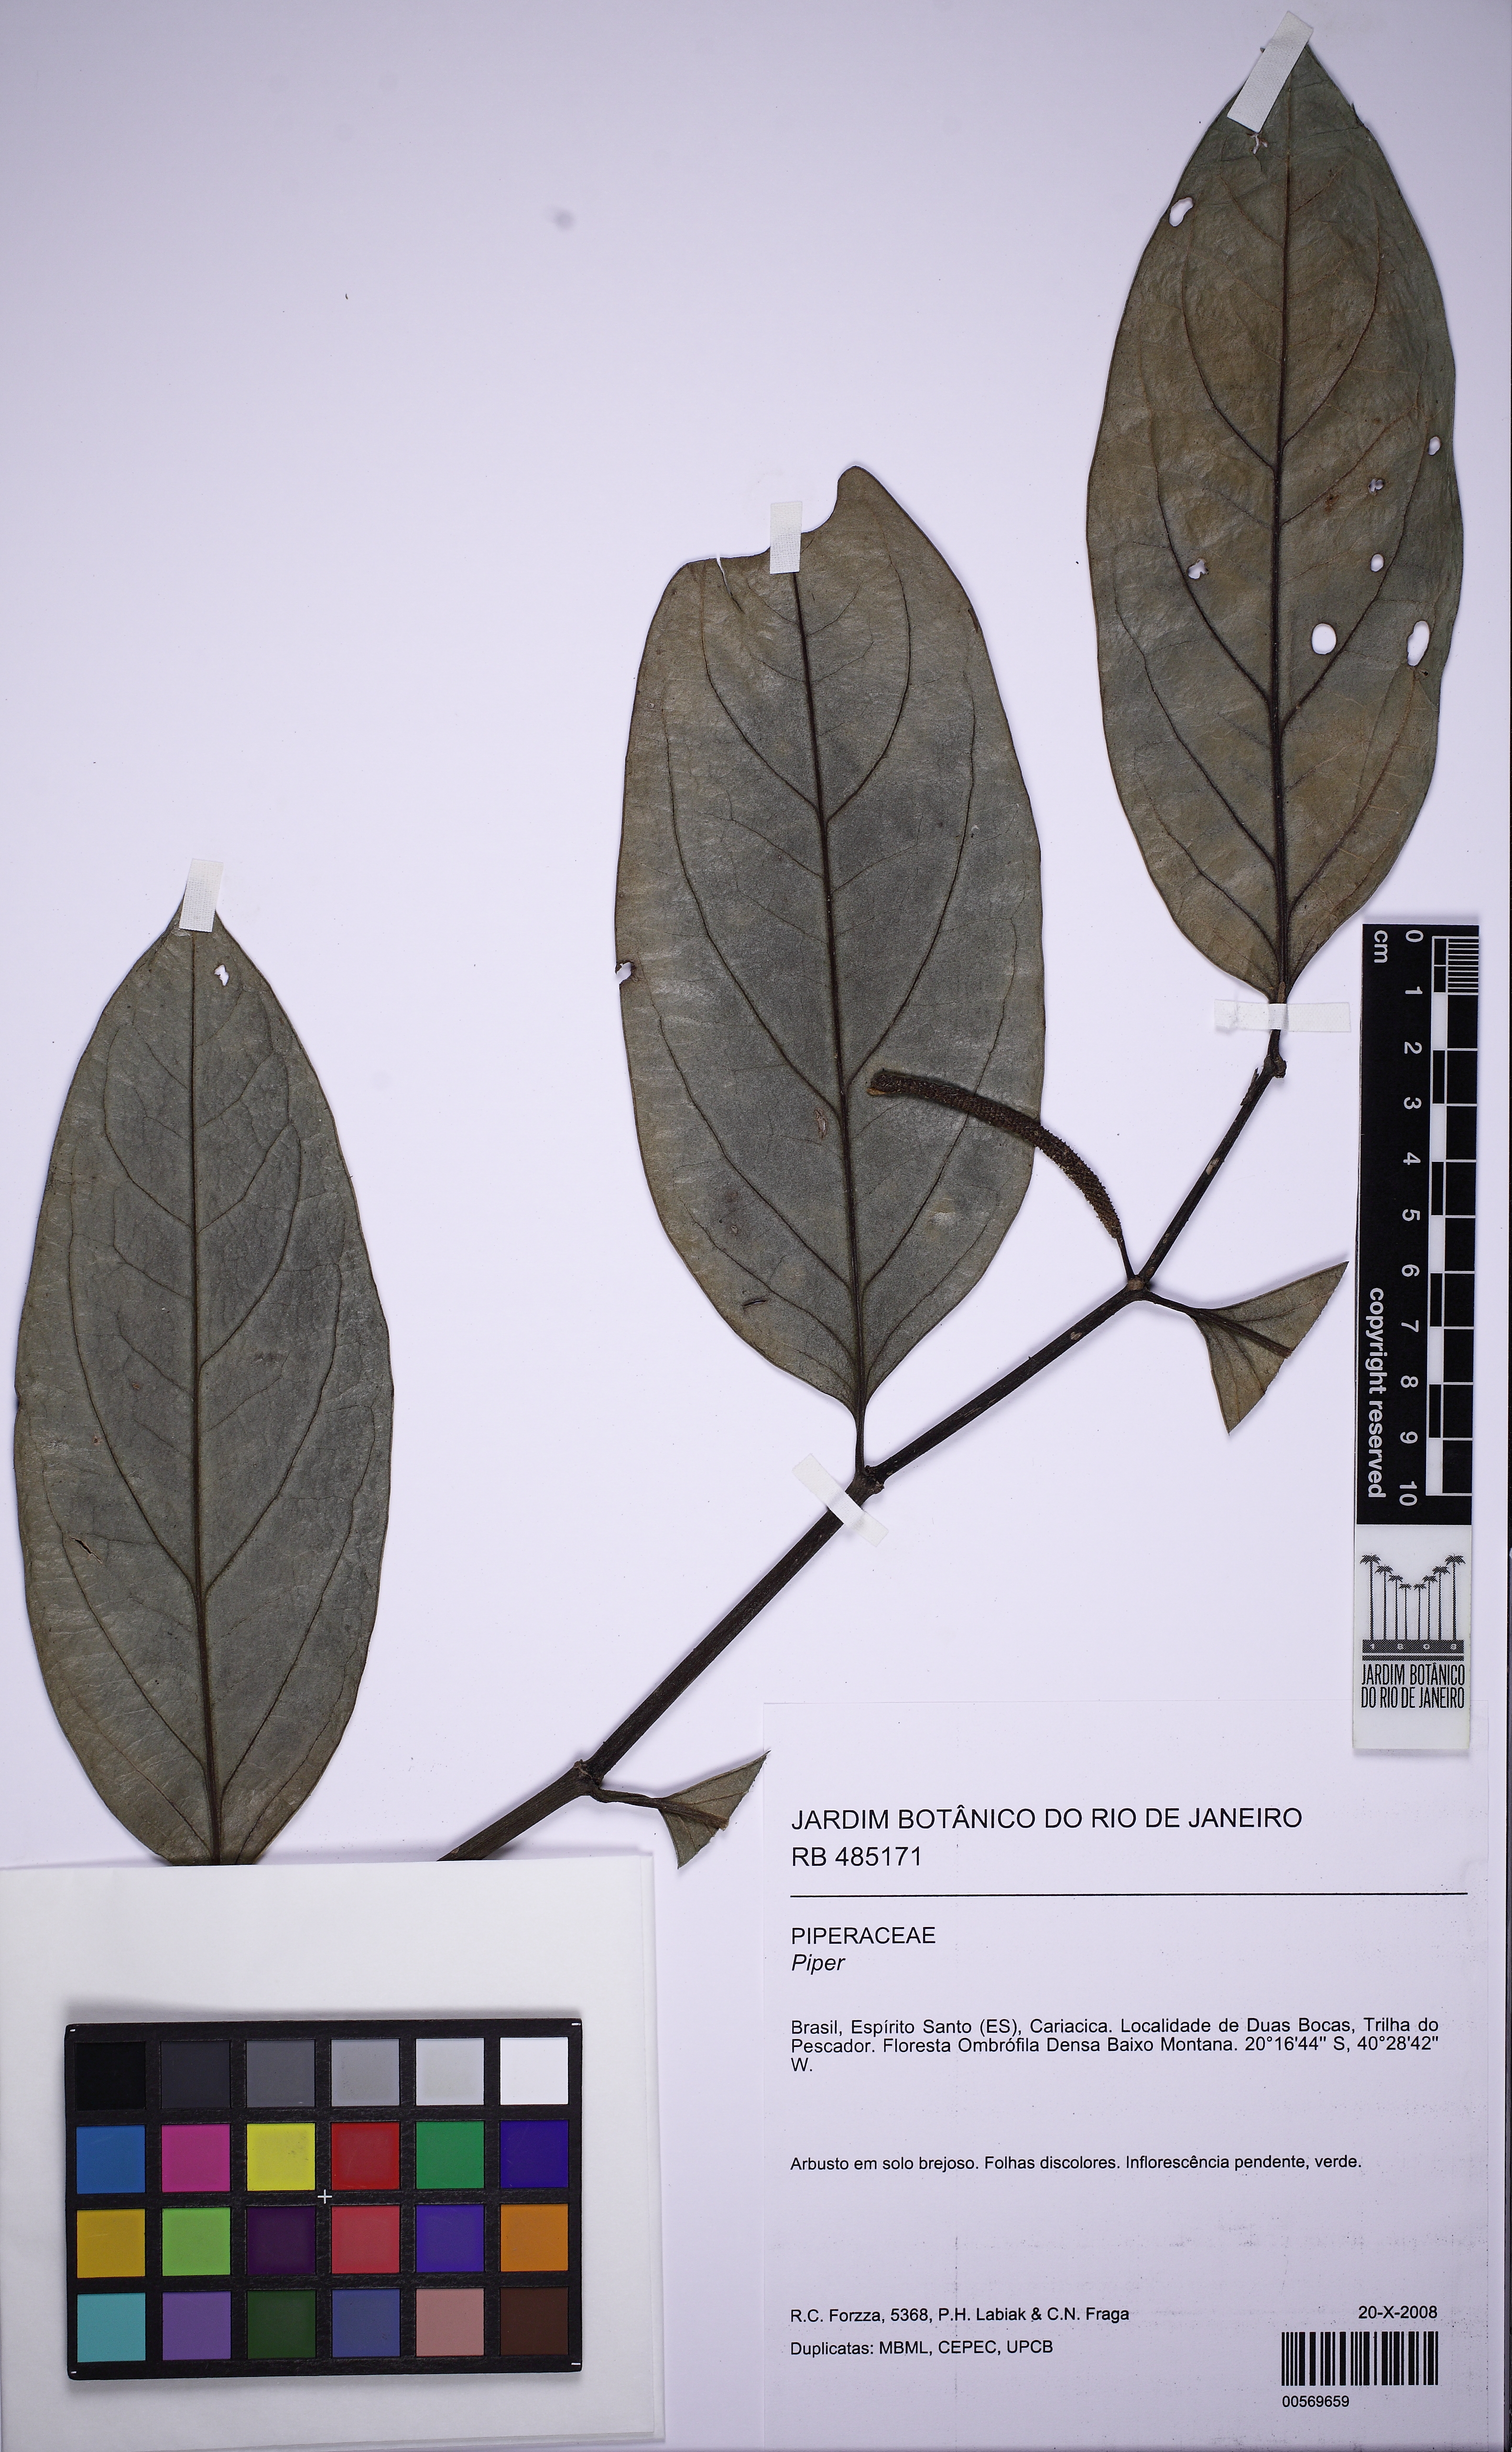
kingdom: Plantae
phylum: Tracheophyta
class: Magnoliopsida
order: Piperales
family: Piperaceae
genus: Piper
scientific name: Piper divaricatum
